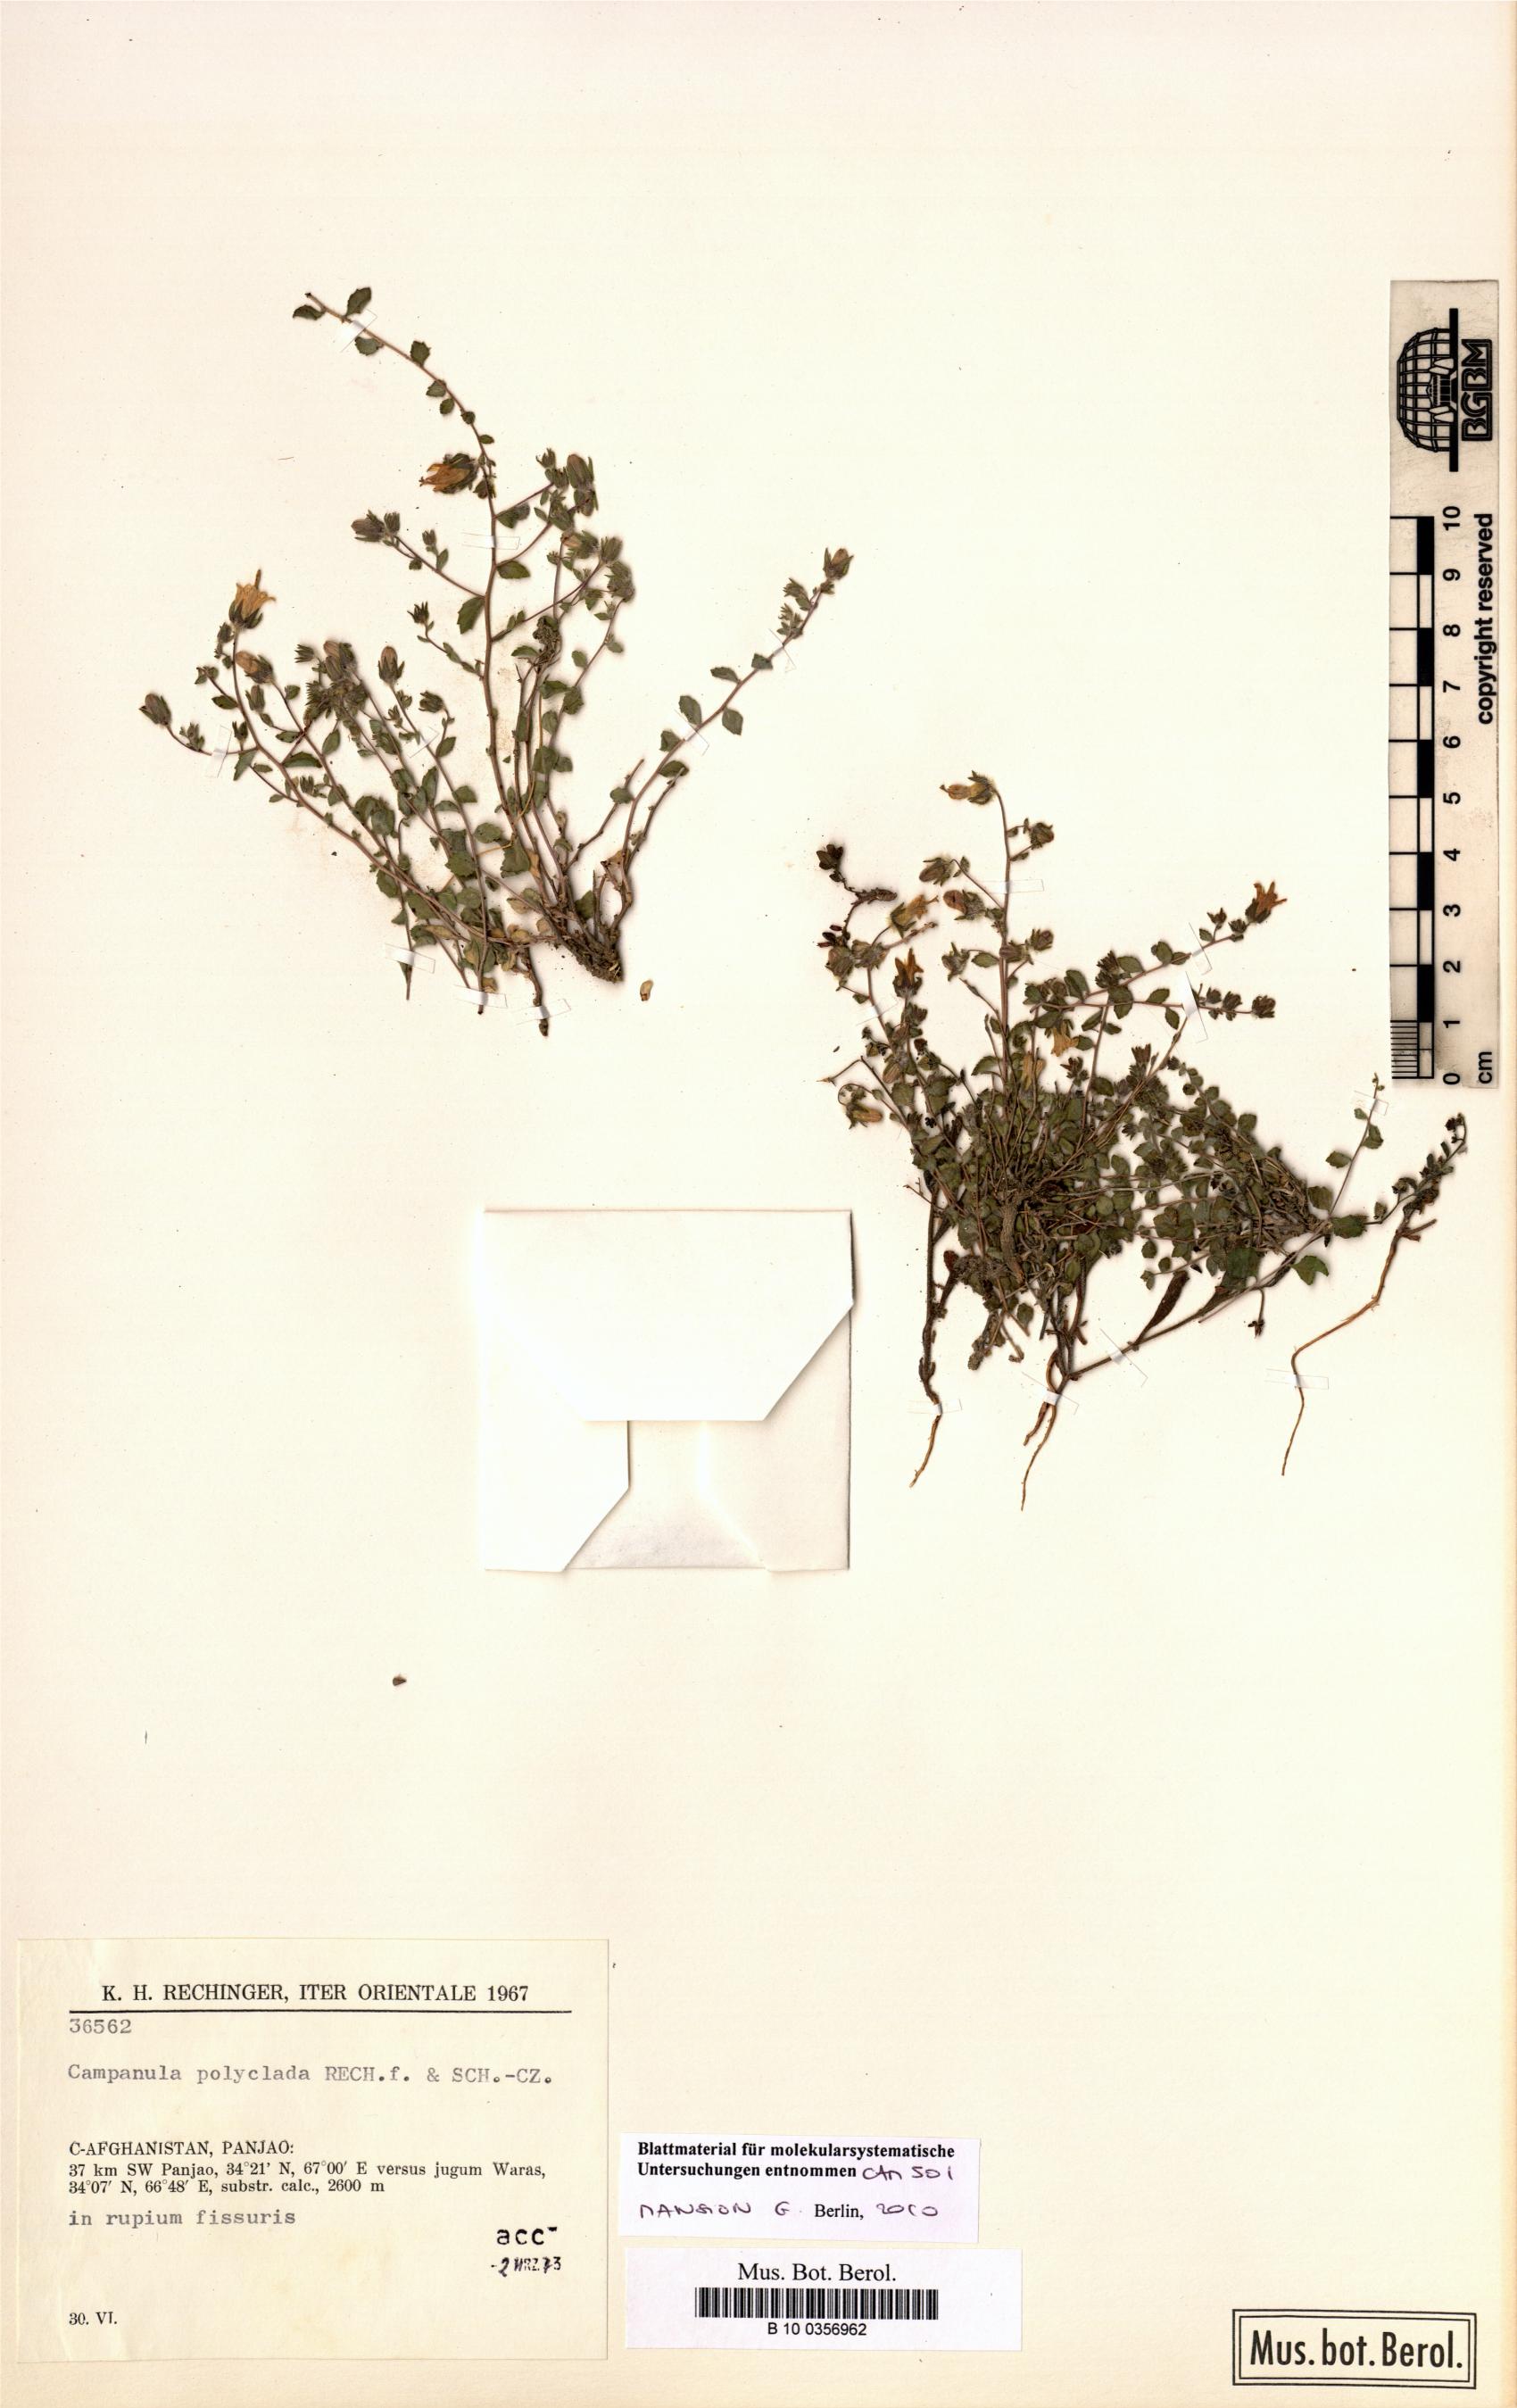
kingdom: Plantae
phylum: Tracheophyta
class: Magnoliopsida
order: Asterales
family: Campanulaceae
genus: Campanula
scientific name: Campanula polyclada
